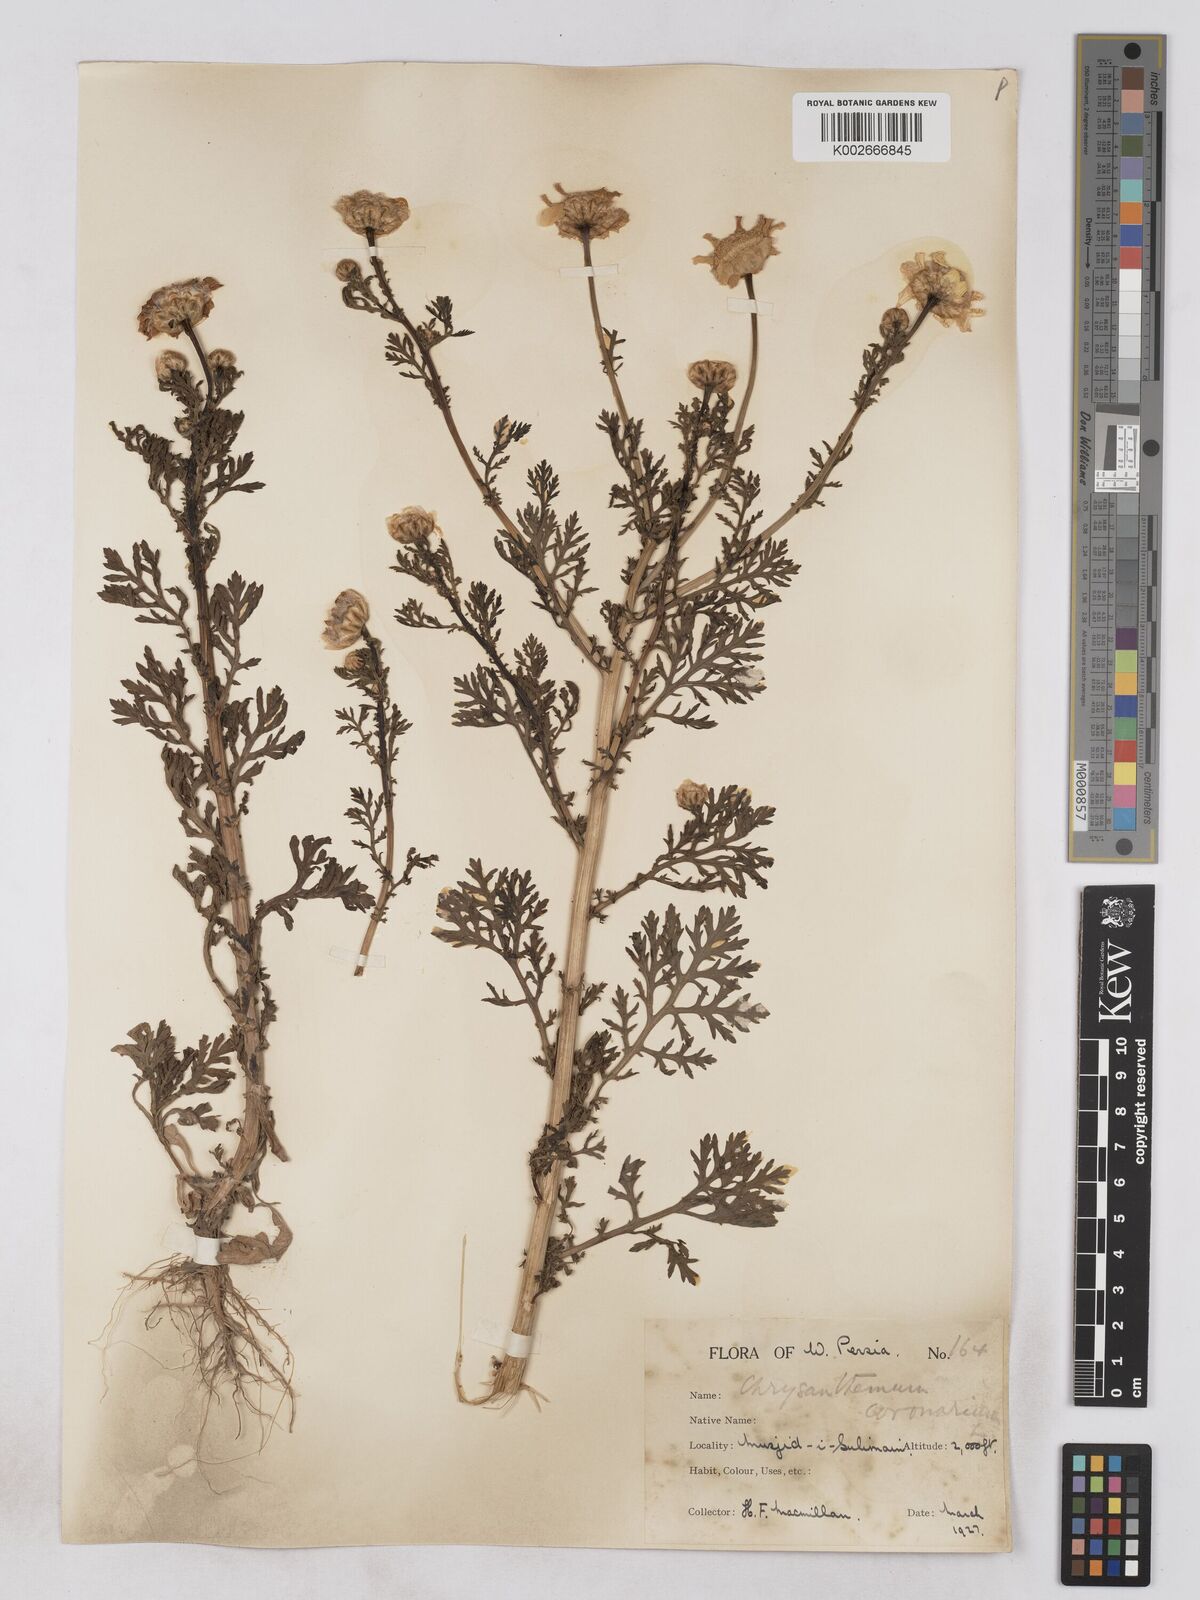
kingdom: Plantae
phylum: Tracheophyta
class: Magnoliopsida
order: Asterales
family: Asteraceae
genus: Glebionis
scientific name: Glebionis coronaria
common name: Crowndaisy
